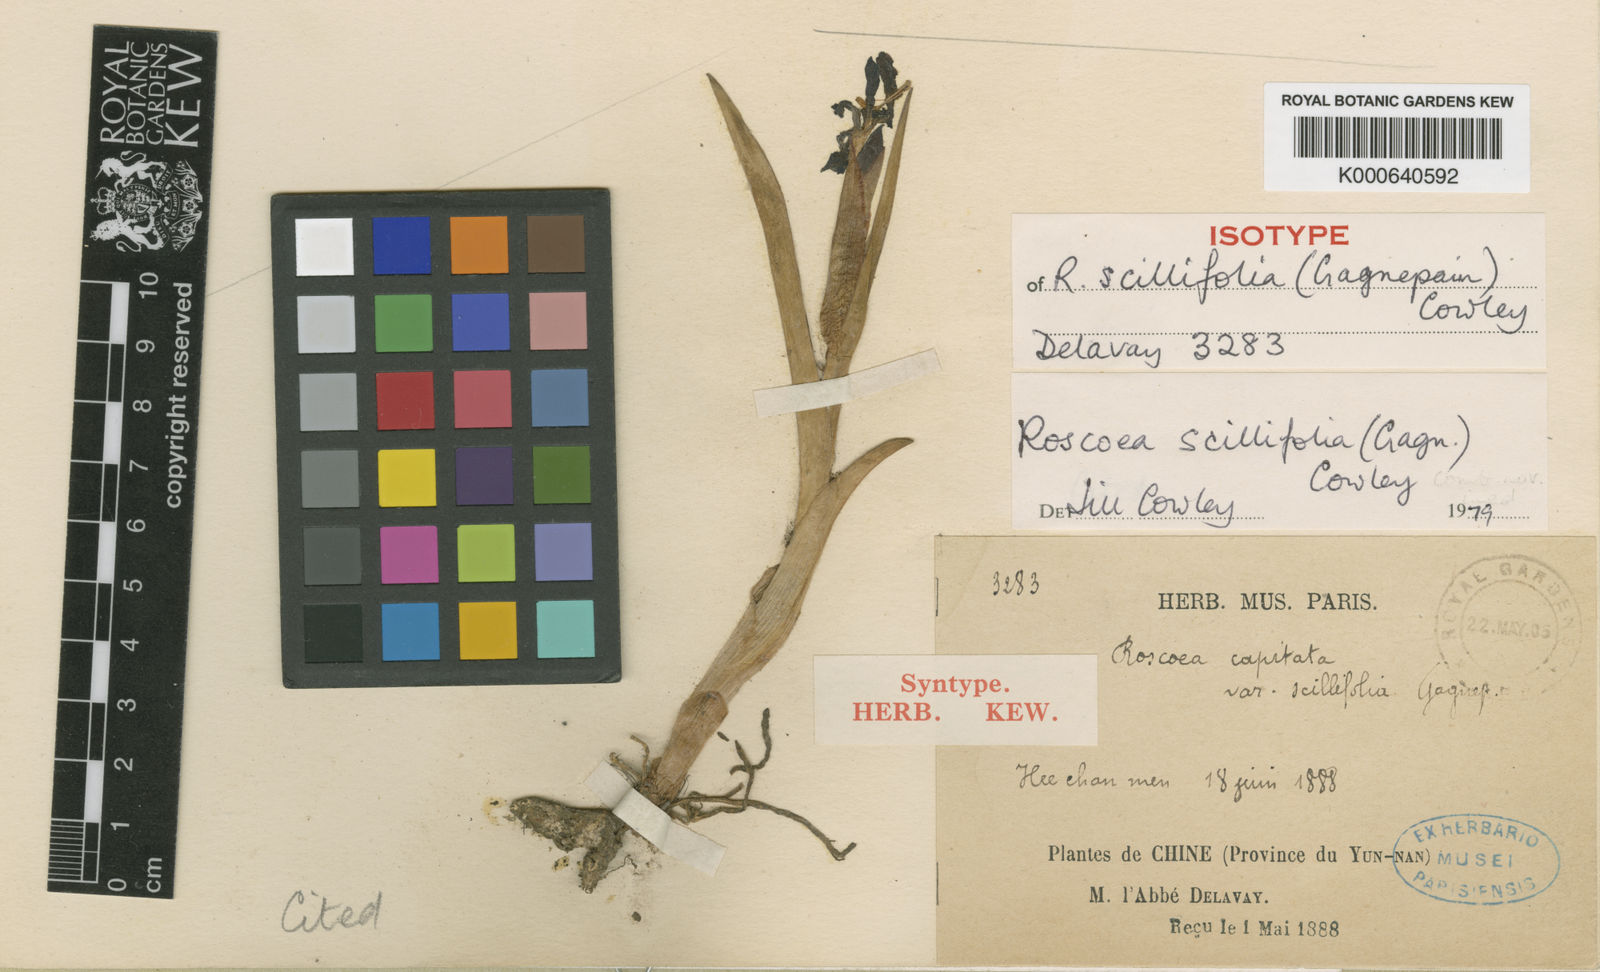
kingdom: Plantae
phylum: Tracheophyta
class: Liliopsida
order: Zingiberales
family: Zingiberaceae
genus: Roscoea
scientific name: Roscoea scillifolia
